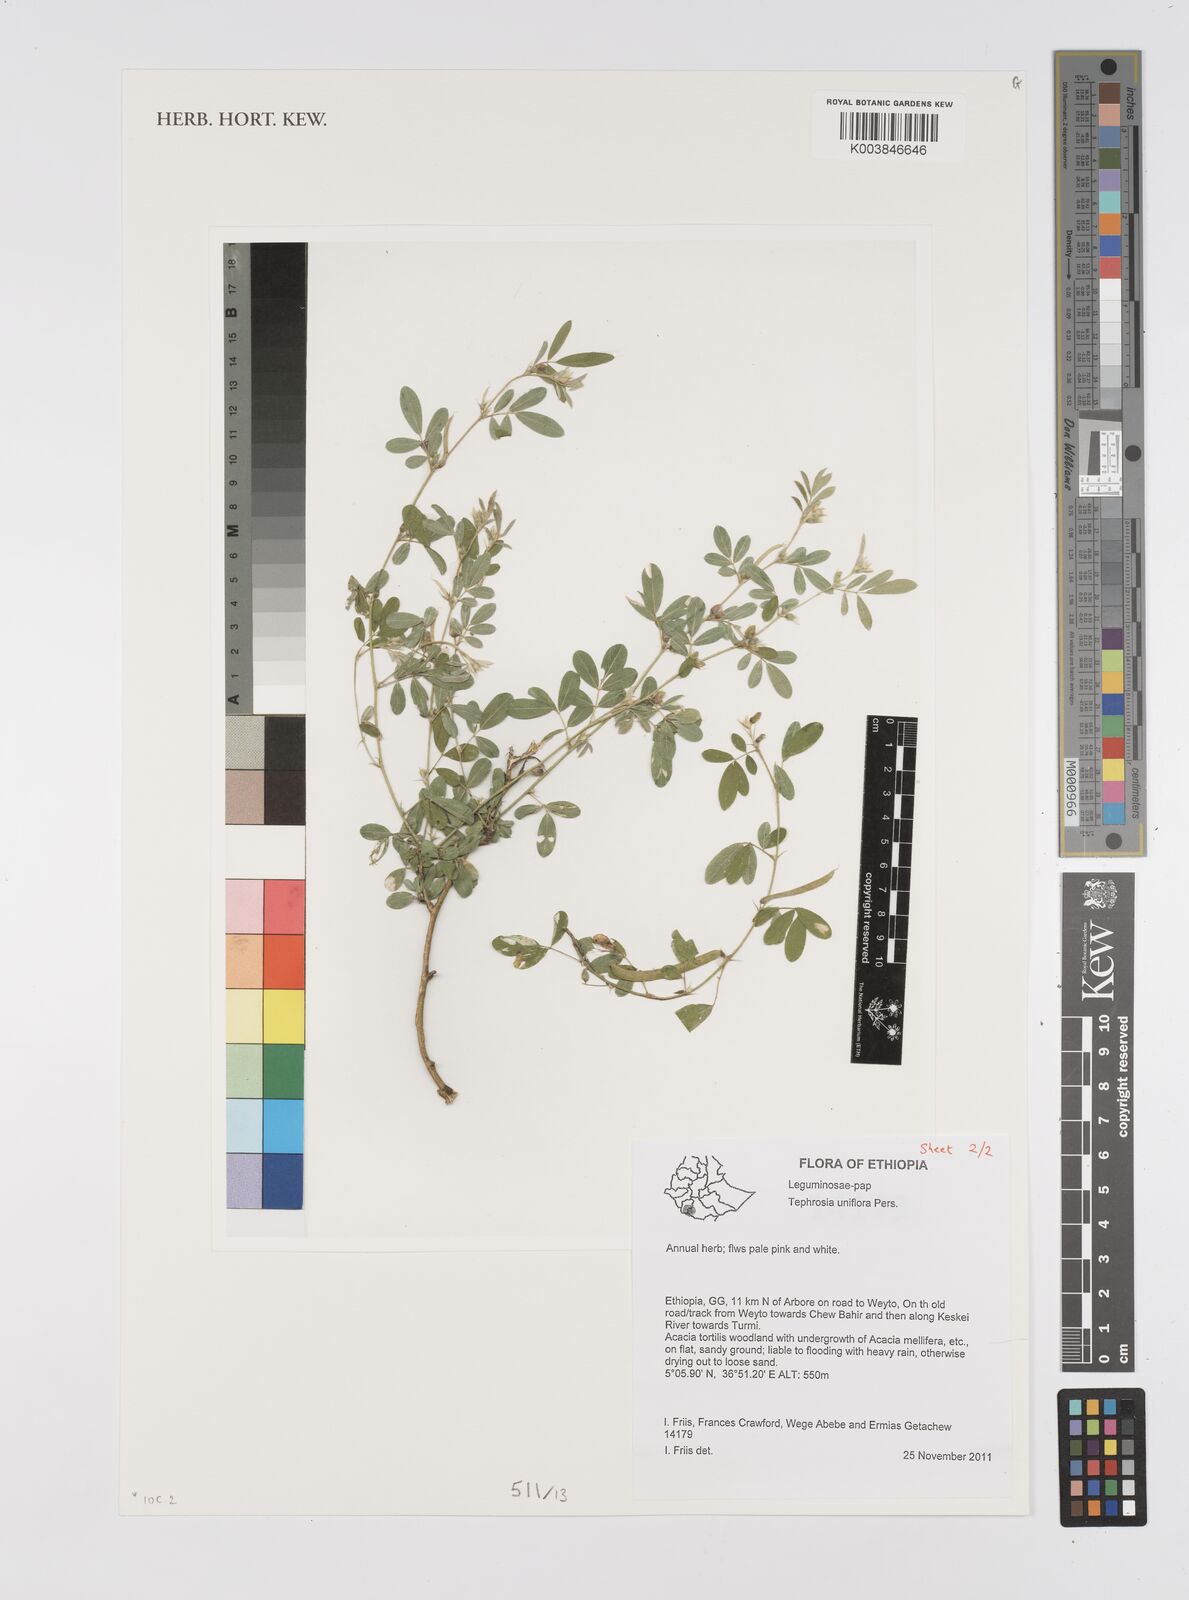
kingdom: Plantae
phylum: Tracheophyta
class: Magnoliopsida
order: Fabales
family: Fabaceae
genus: Tephrosia
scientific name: Tephrosia uniflora
